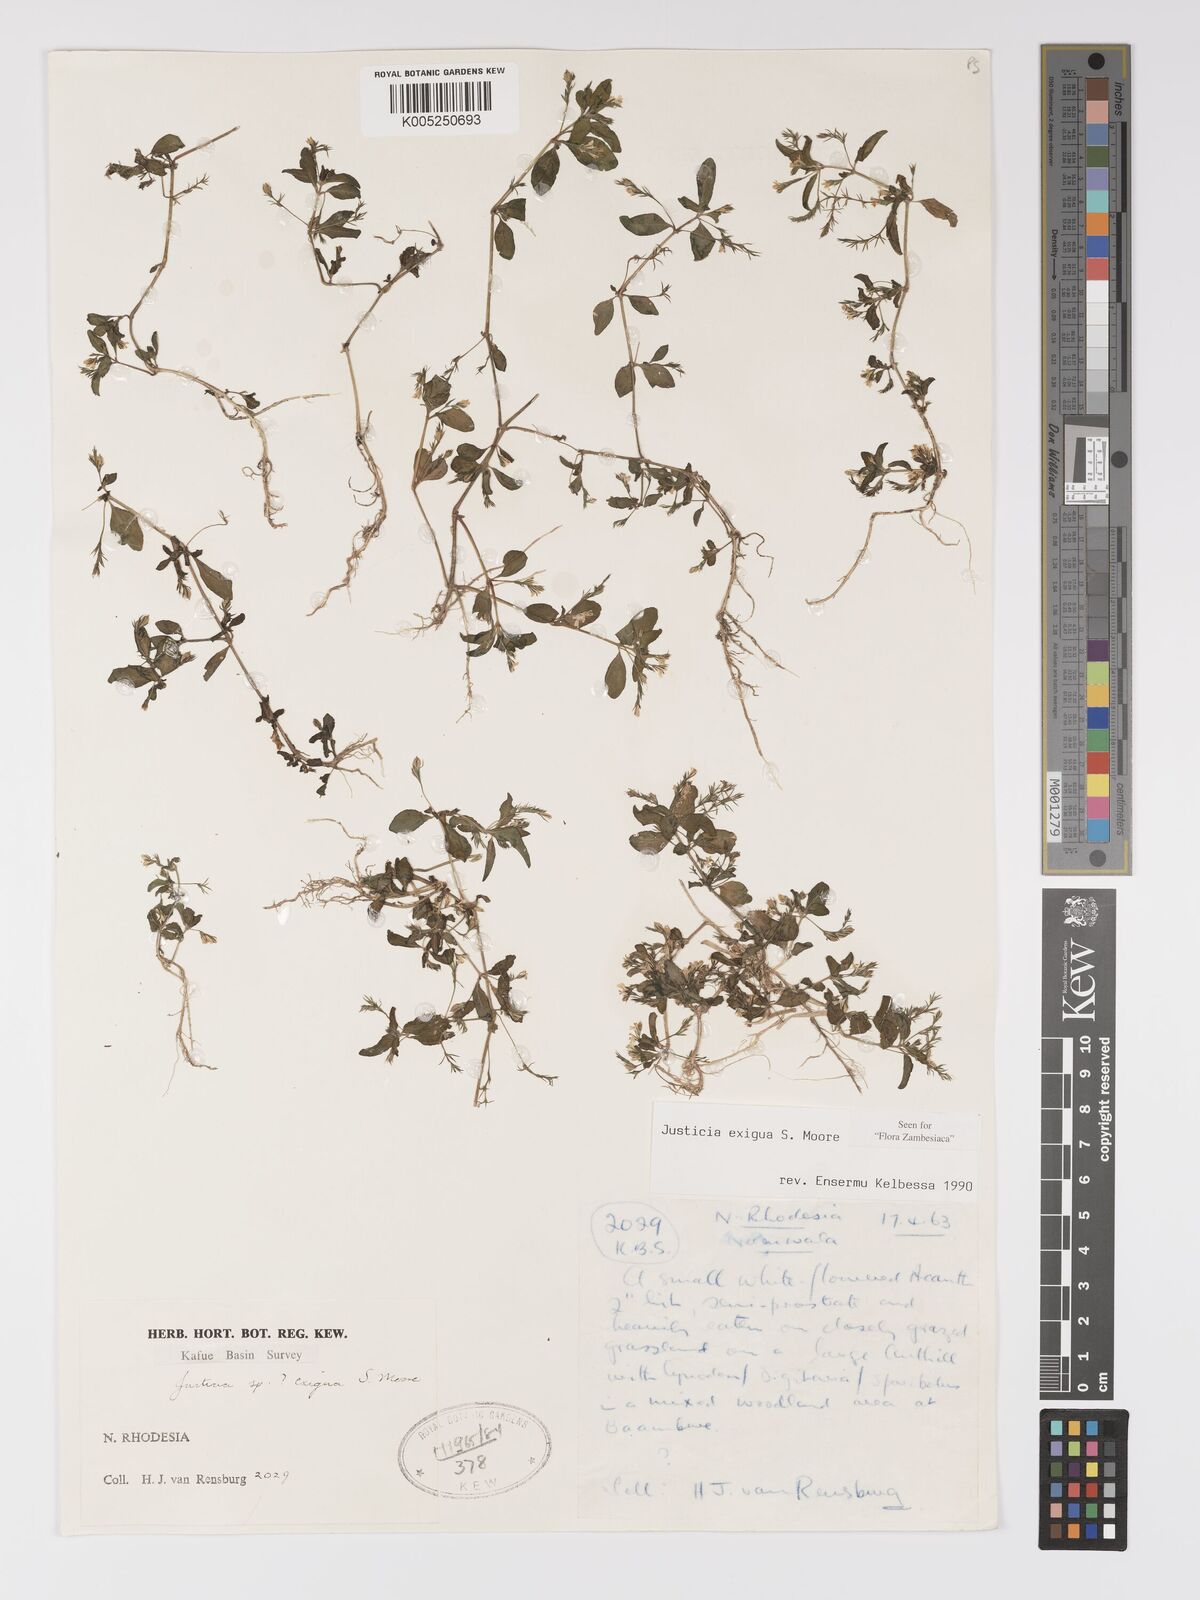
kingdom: Plantae
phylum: Tracheophyta
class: Magnoliopsida
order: Lamiales
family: Acanthaceae
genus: Justicia
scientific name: Justicia exigua
